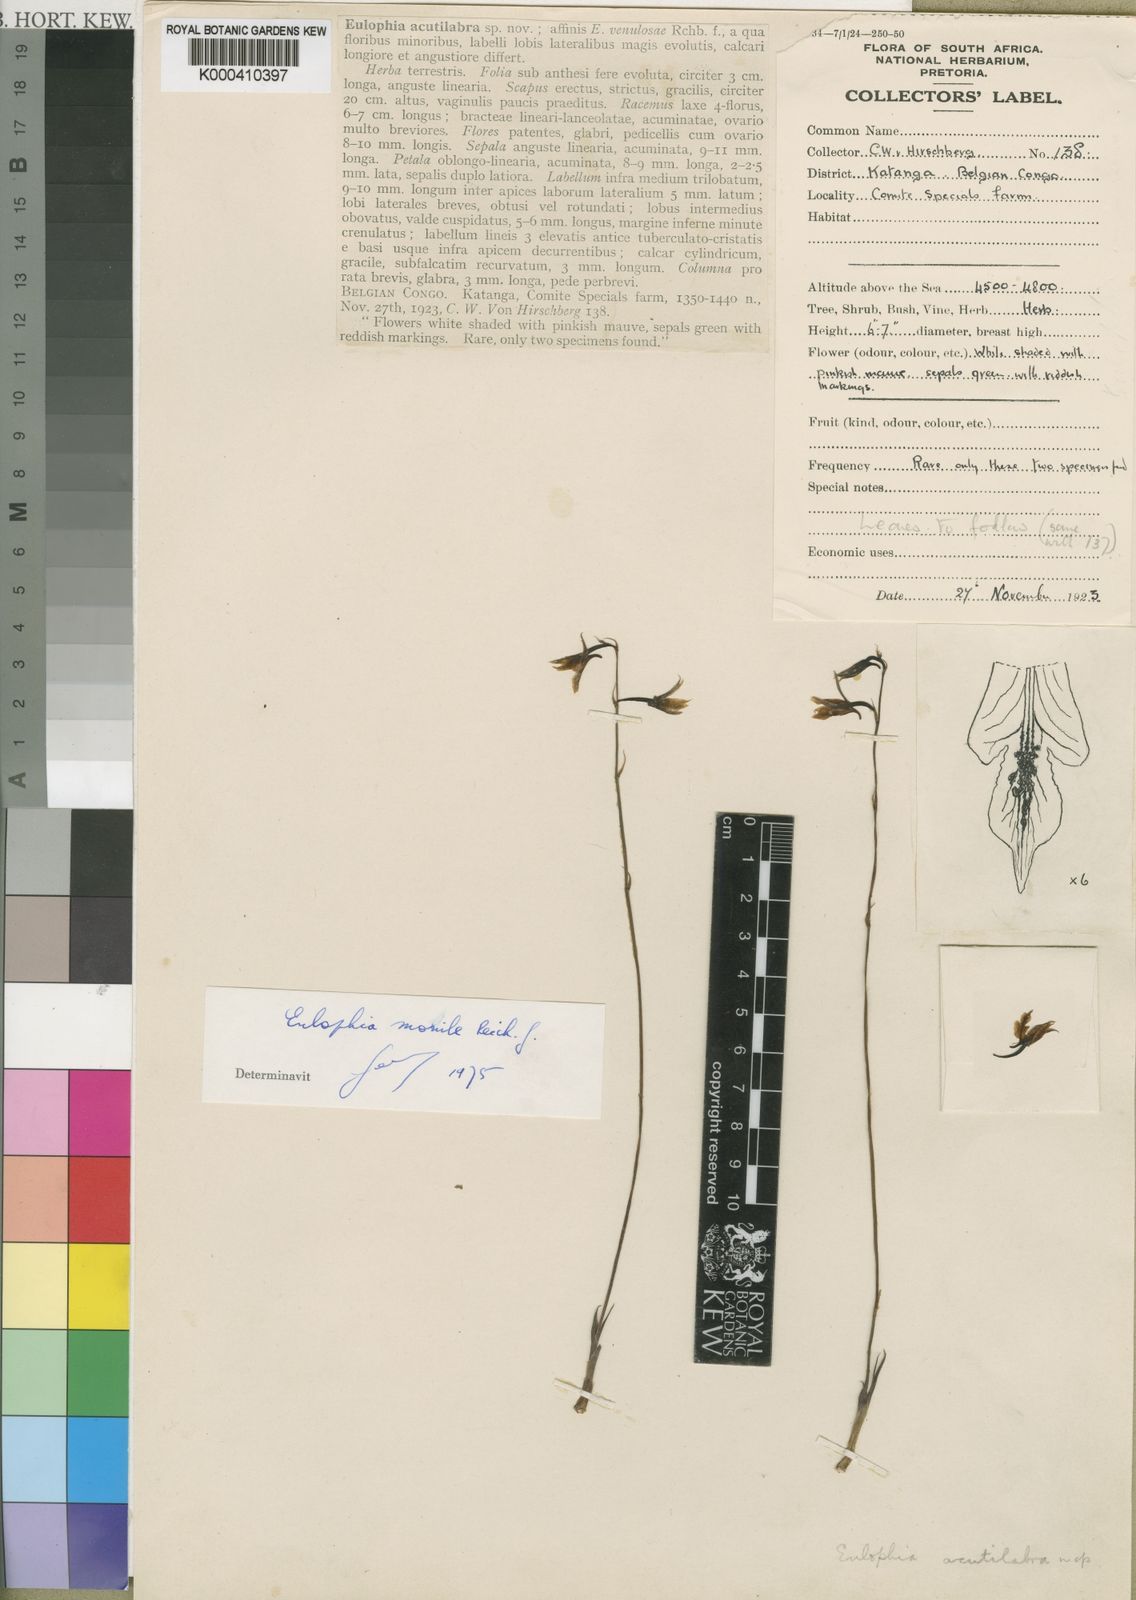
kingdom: Plantae
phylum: Tracheophyta
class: Liliopsida
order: Asparagales
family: Orchidaceae
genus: Eulophia
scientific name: Eulophia acutilabra
